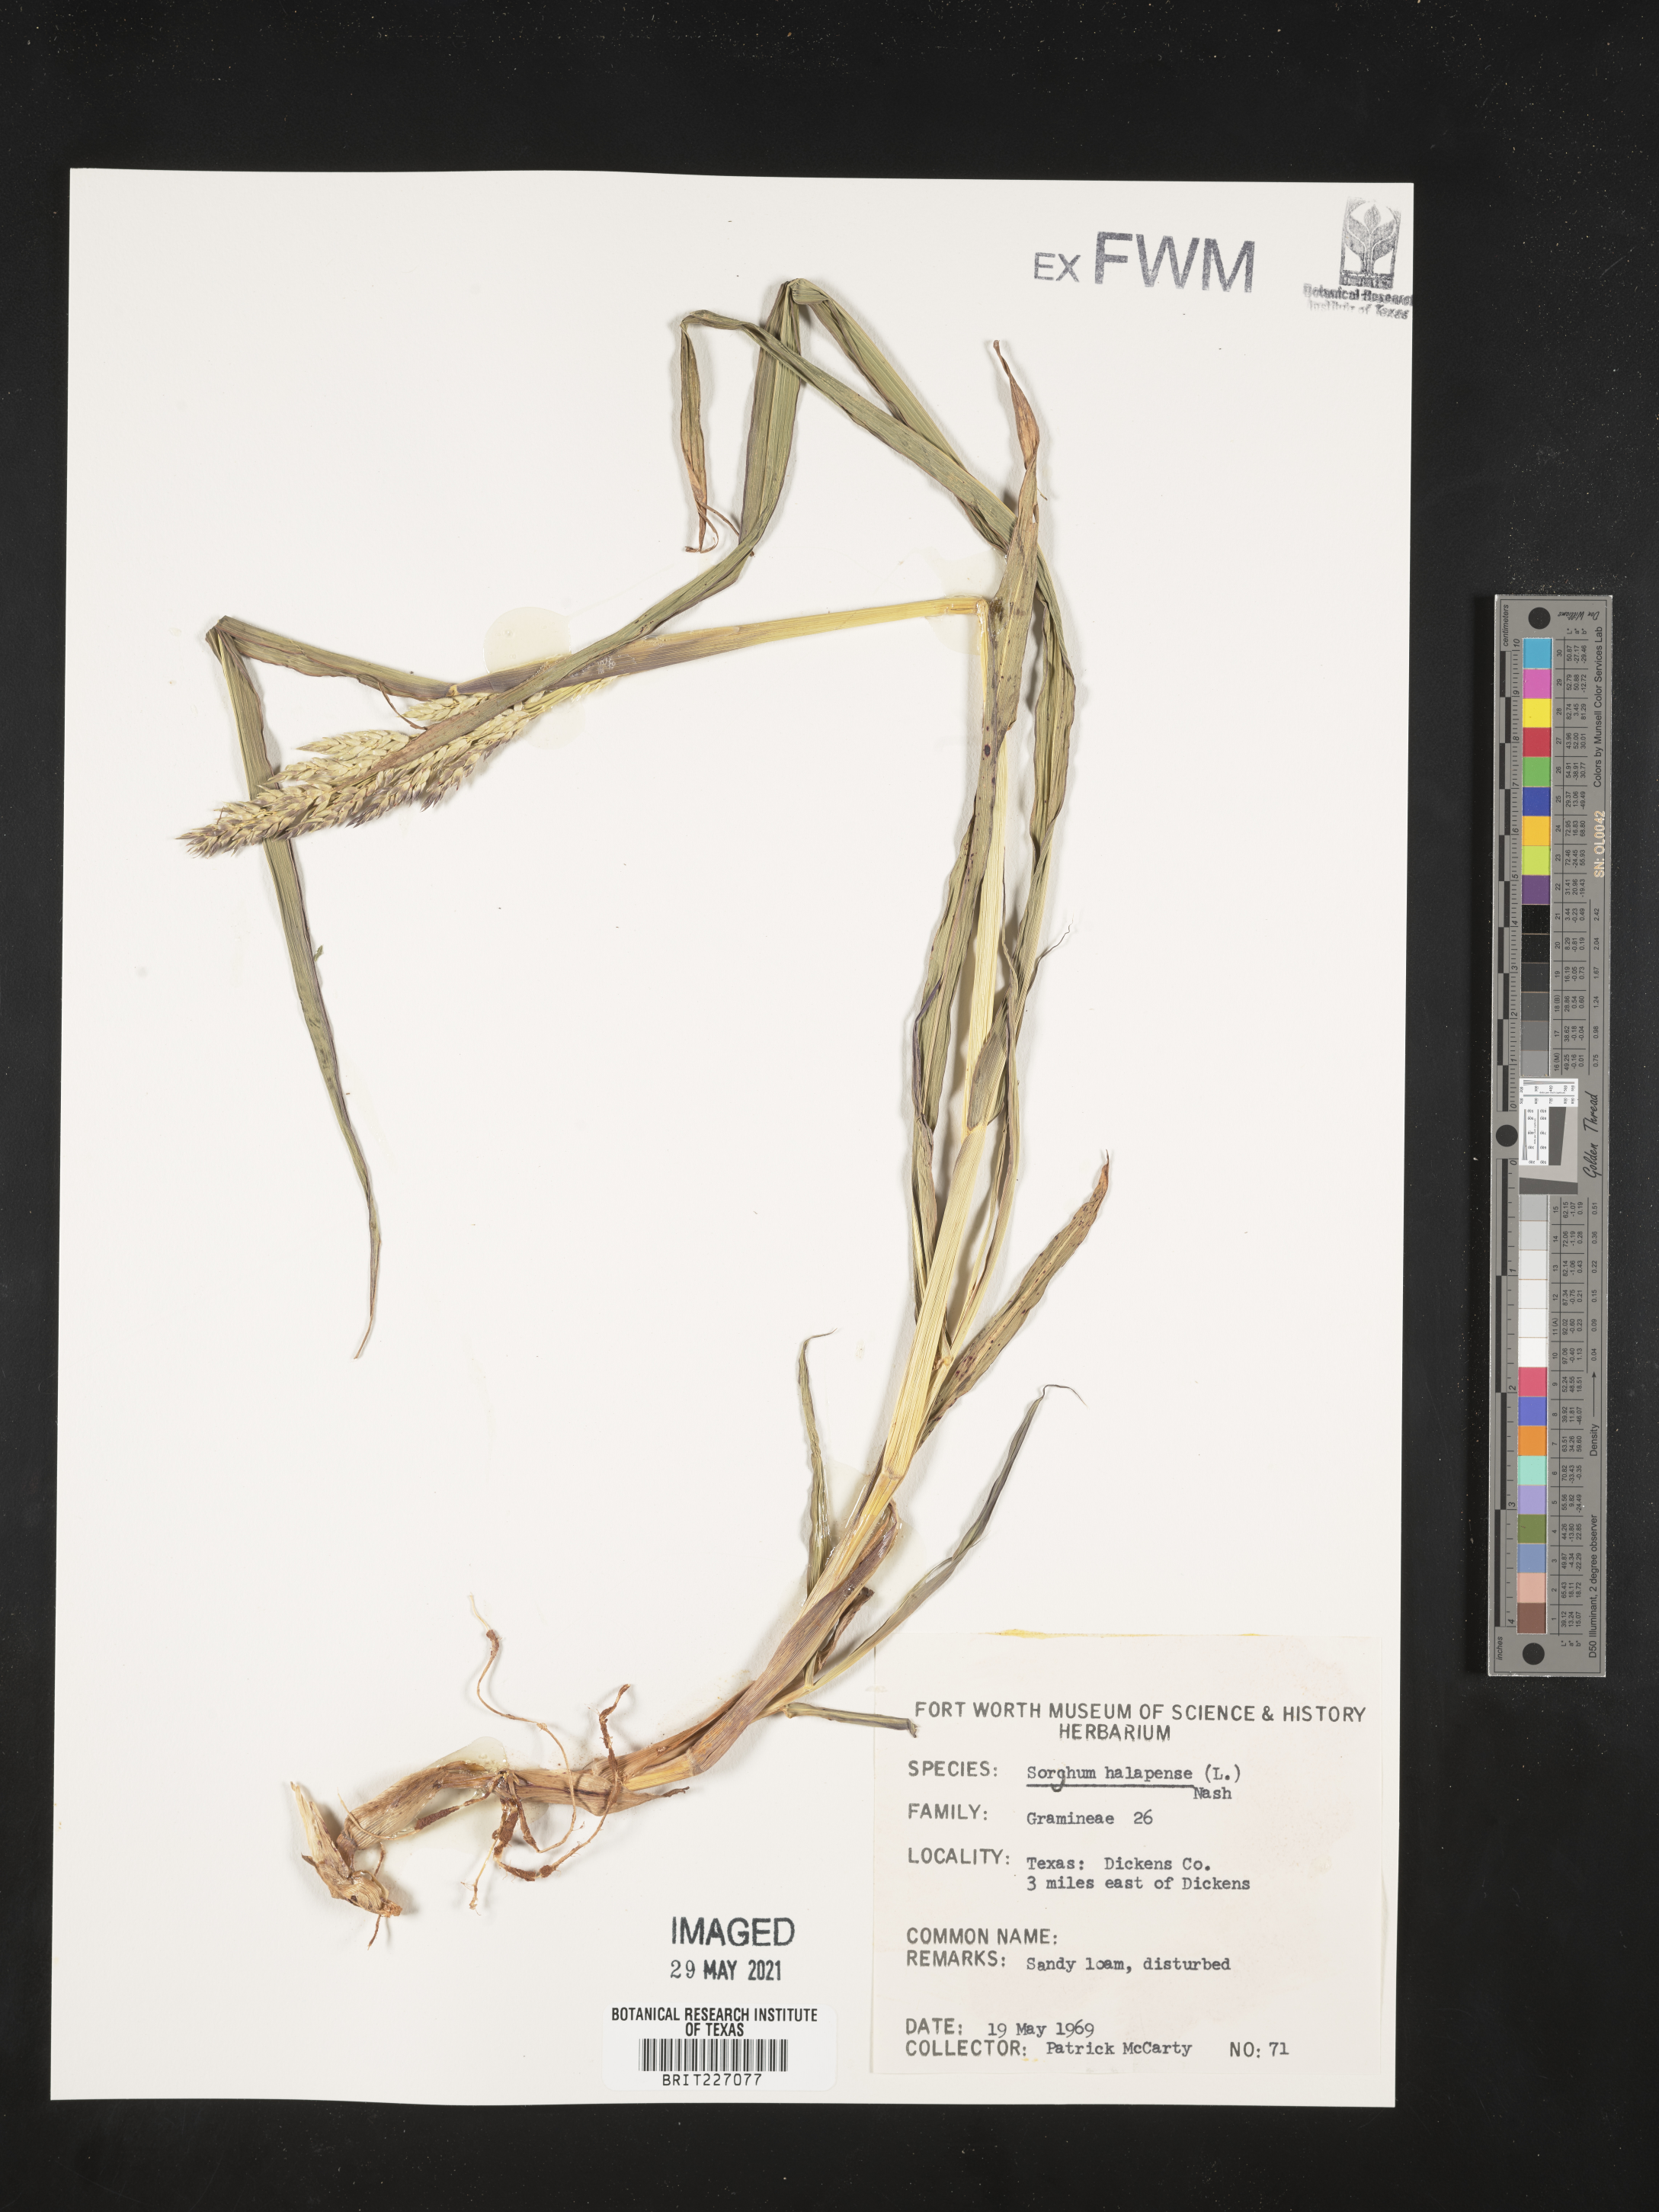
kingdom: Plantae
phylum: Tracheophyta
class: Liliopsida
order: Poales
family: Poaceae
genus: Sorghum
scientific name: Sorghum halepense
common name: Johnson-grass
